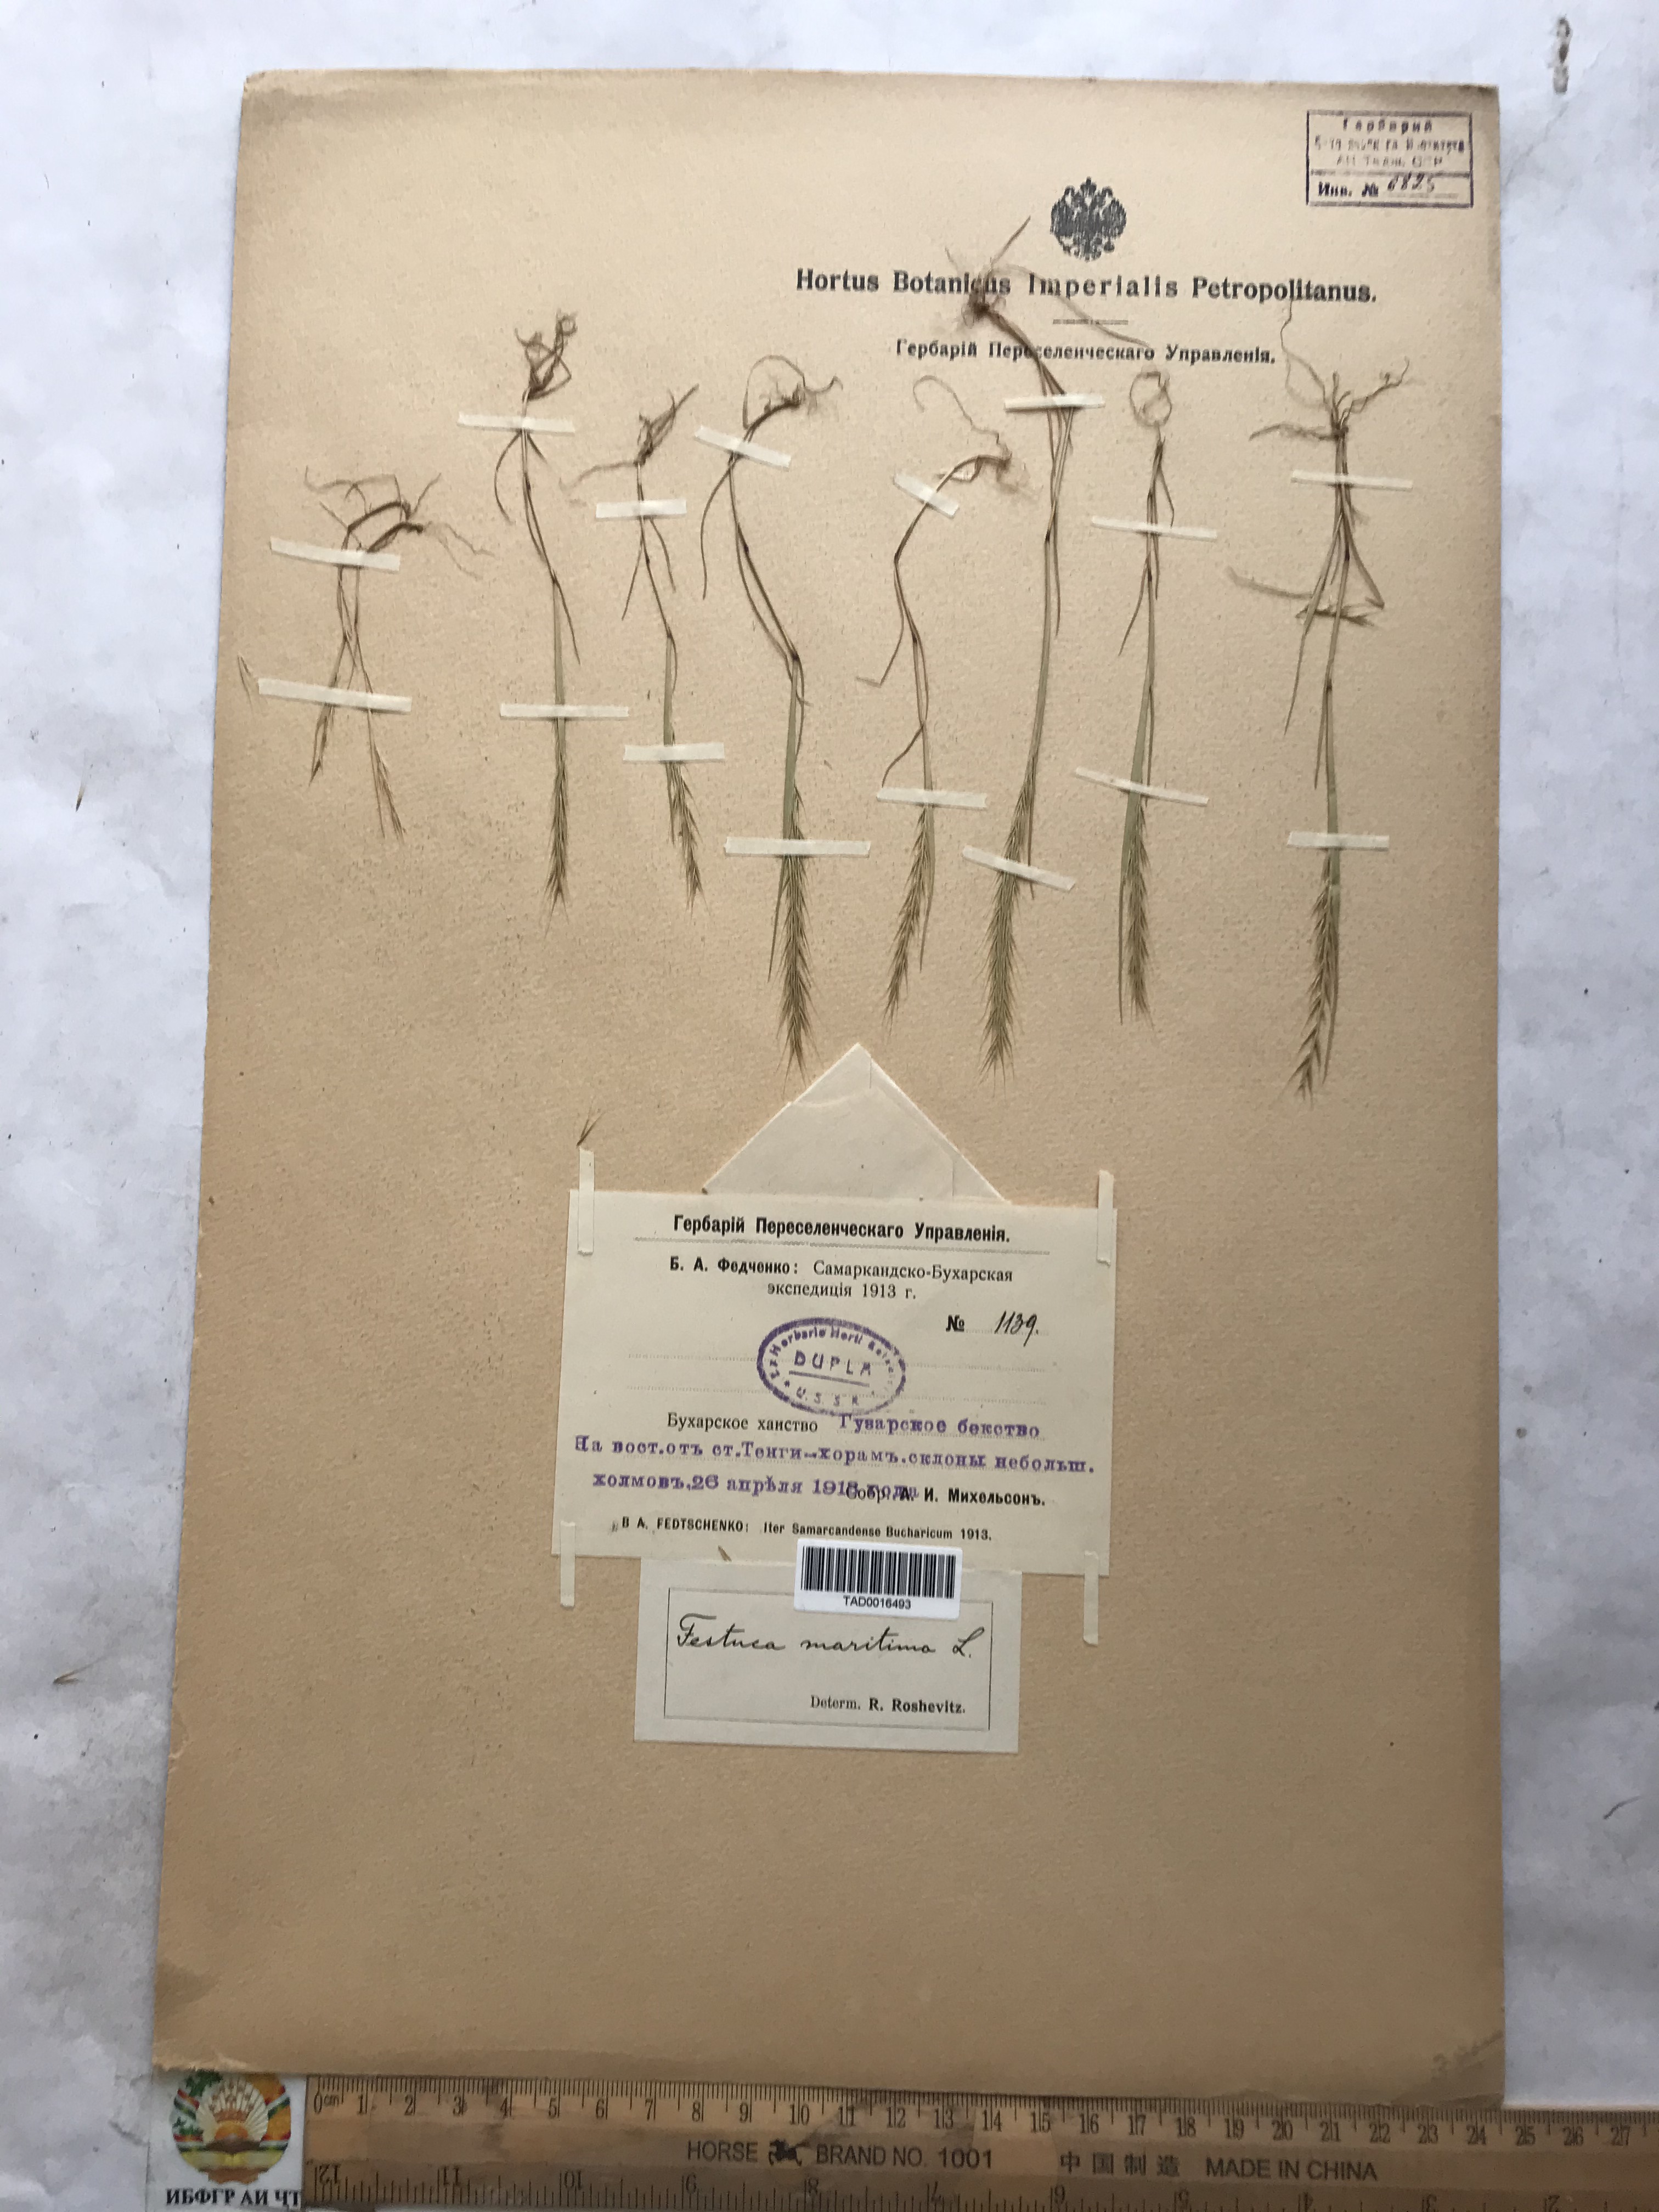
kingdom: Plantae
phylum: Tracheophyta
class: Liliopsida
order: Poales
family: Poaceae
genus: Festuca
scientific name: Festuca Vulpia persica
